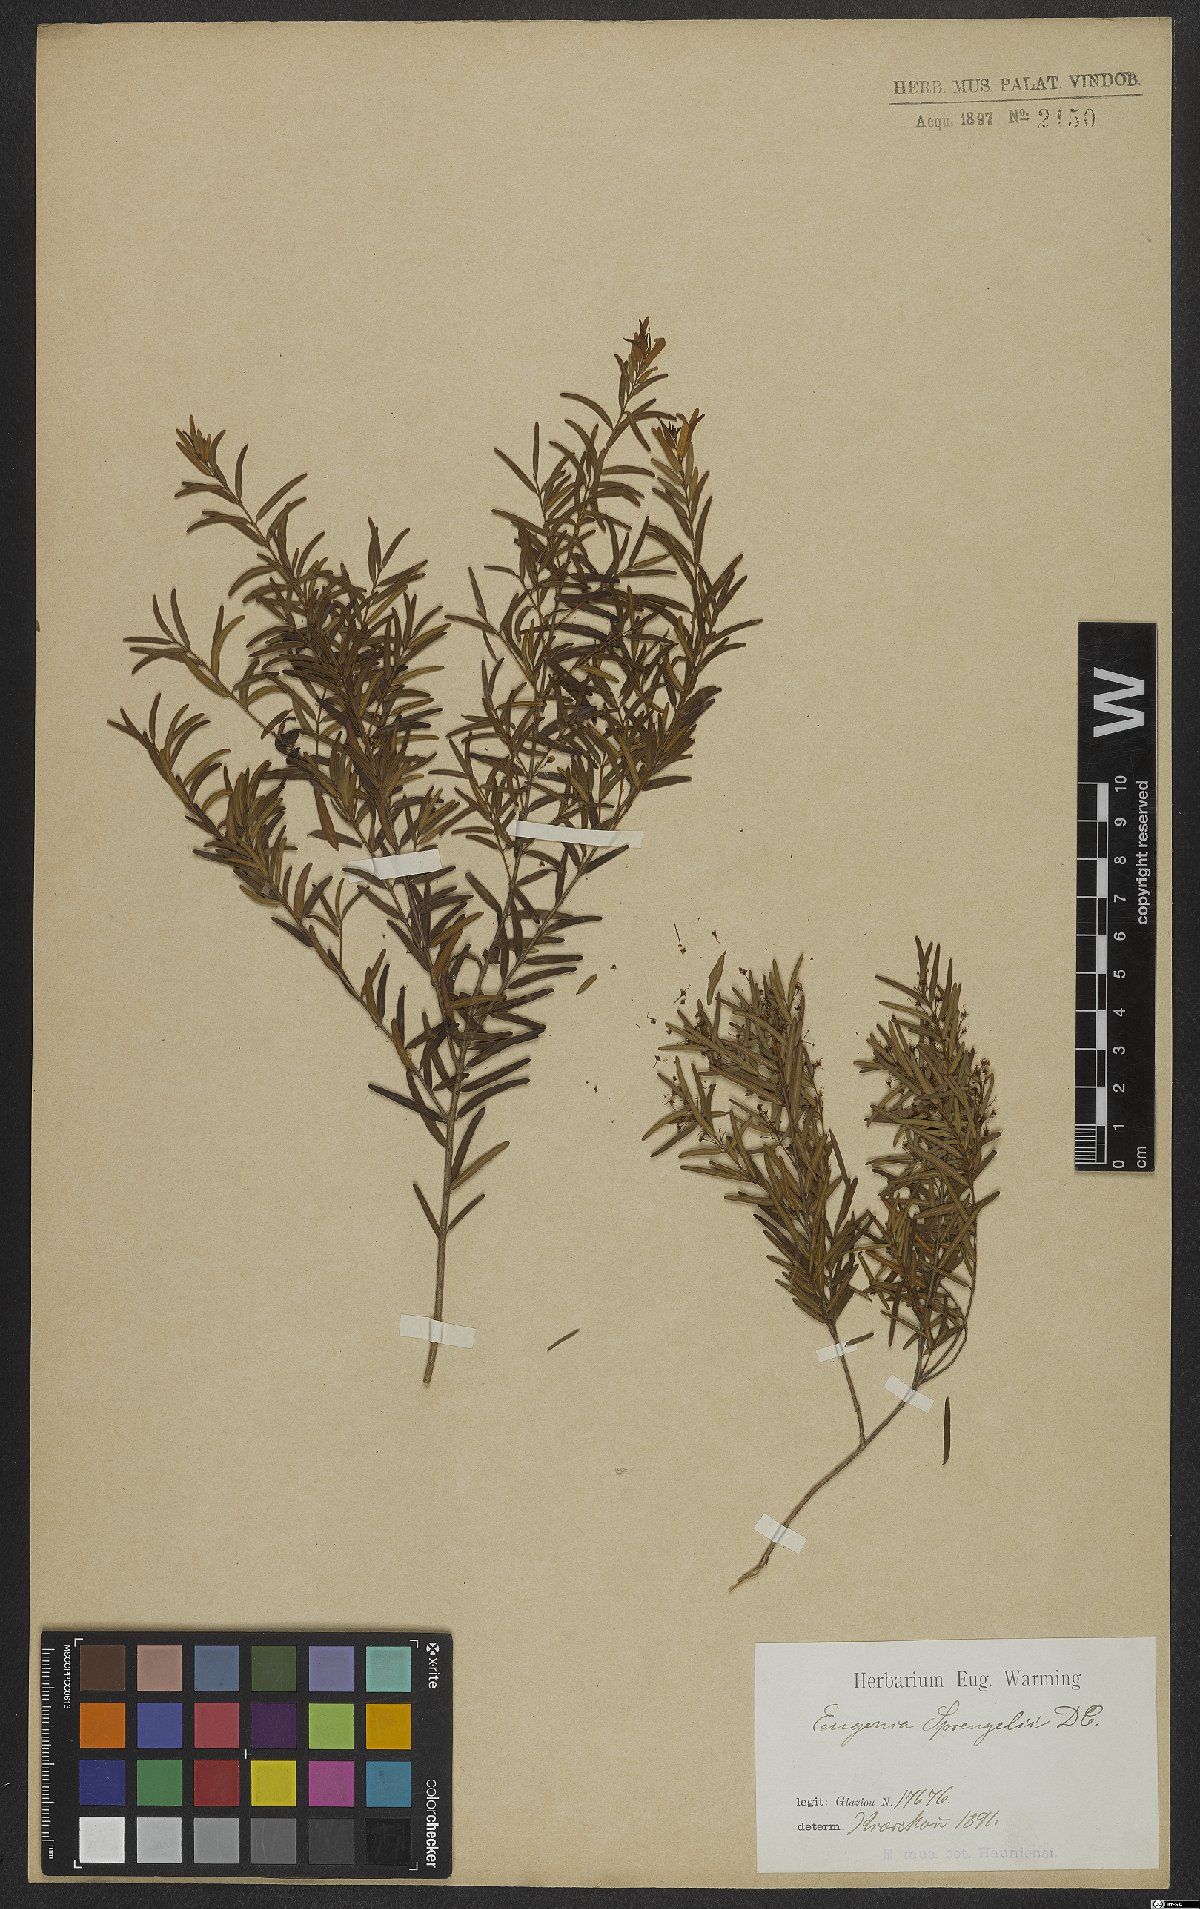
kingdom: Plantae
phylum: Tracheophyta
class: Magnoliopsida
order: Myrtales
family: Myrtaceae
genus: Eugenia
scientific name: Eugenia sprengelii
